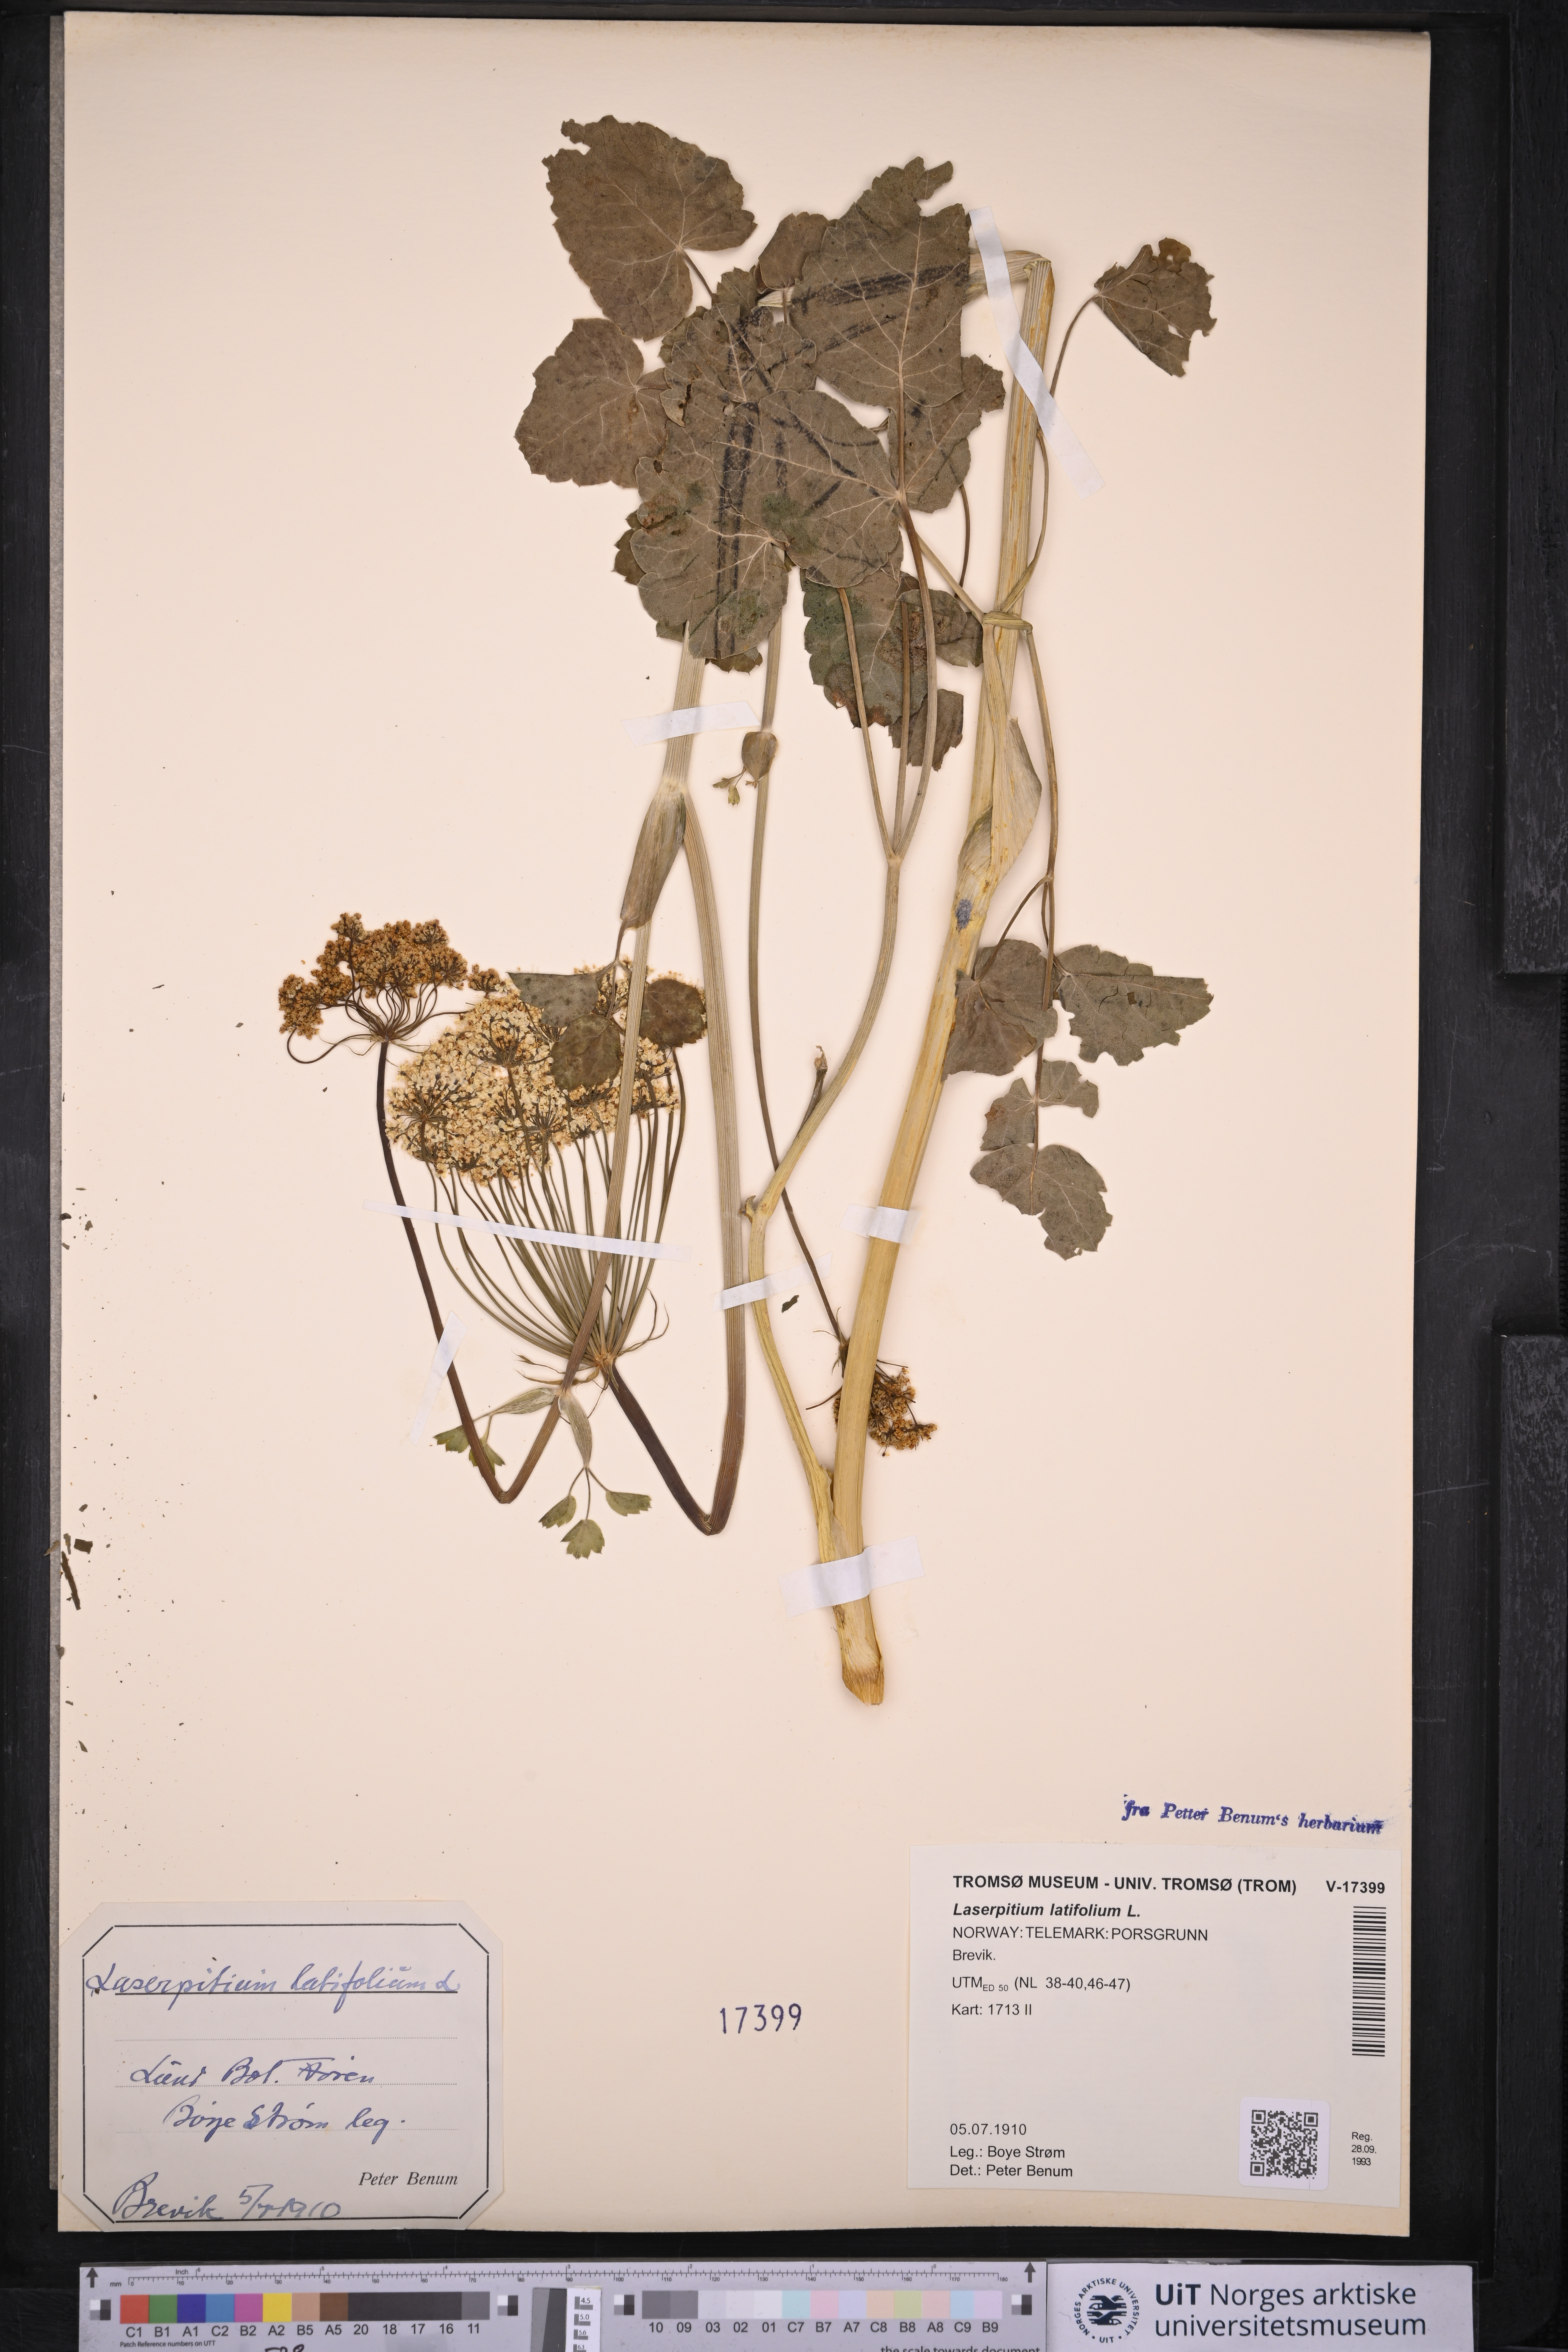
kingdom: Plantae
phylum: Tracheophyta
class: Magnoliopsida
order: Apiales
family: Apiaceae
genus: Laserpitium
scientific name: Laserpitium latifolium
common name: Broadleaf sermountain
